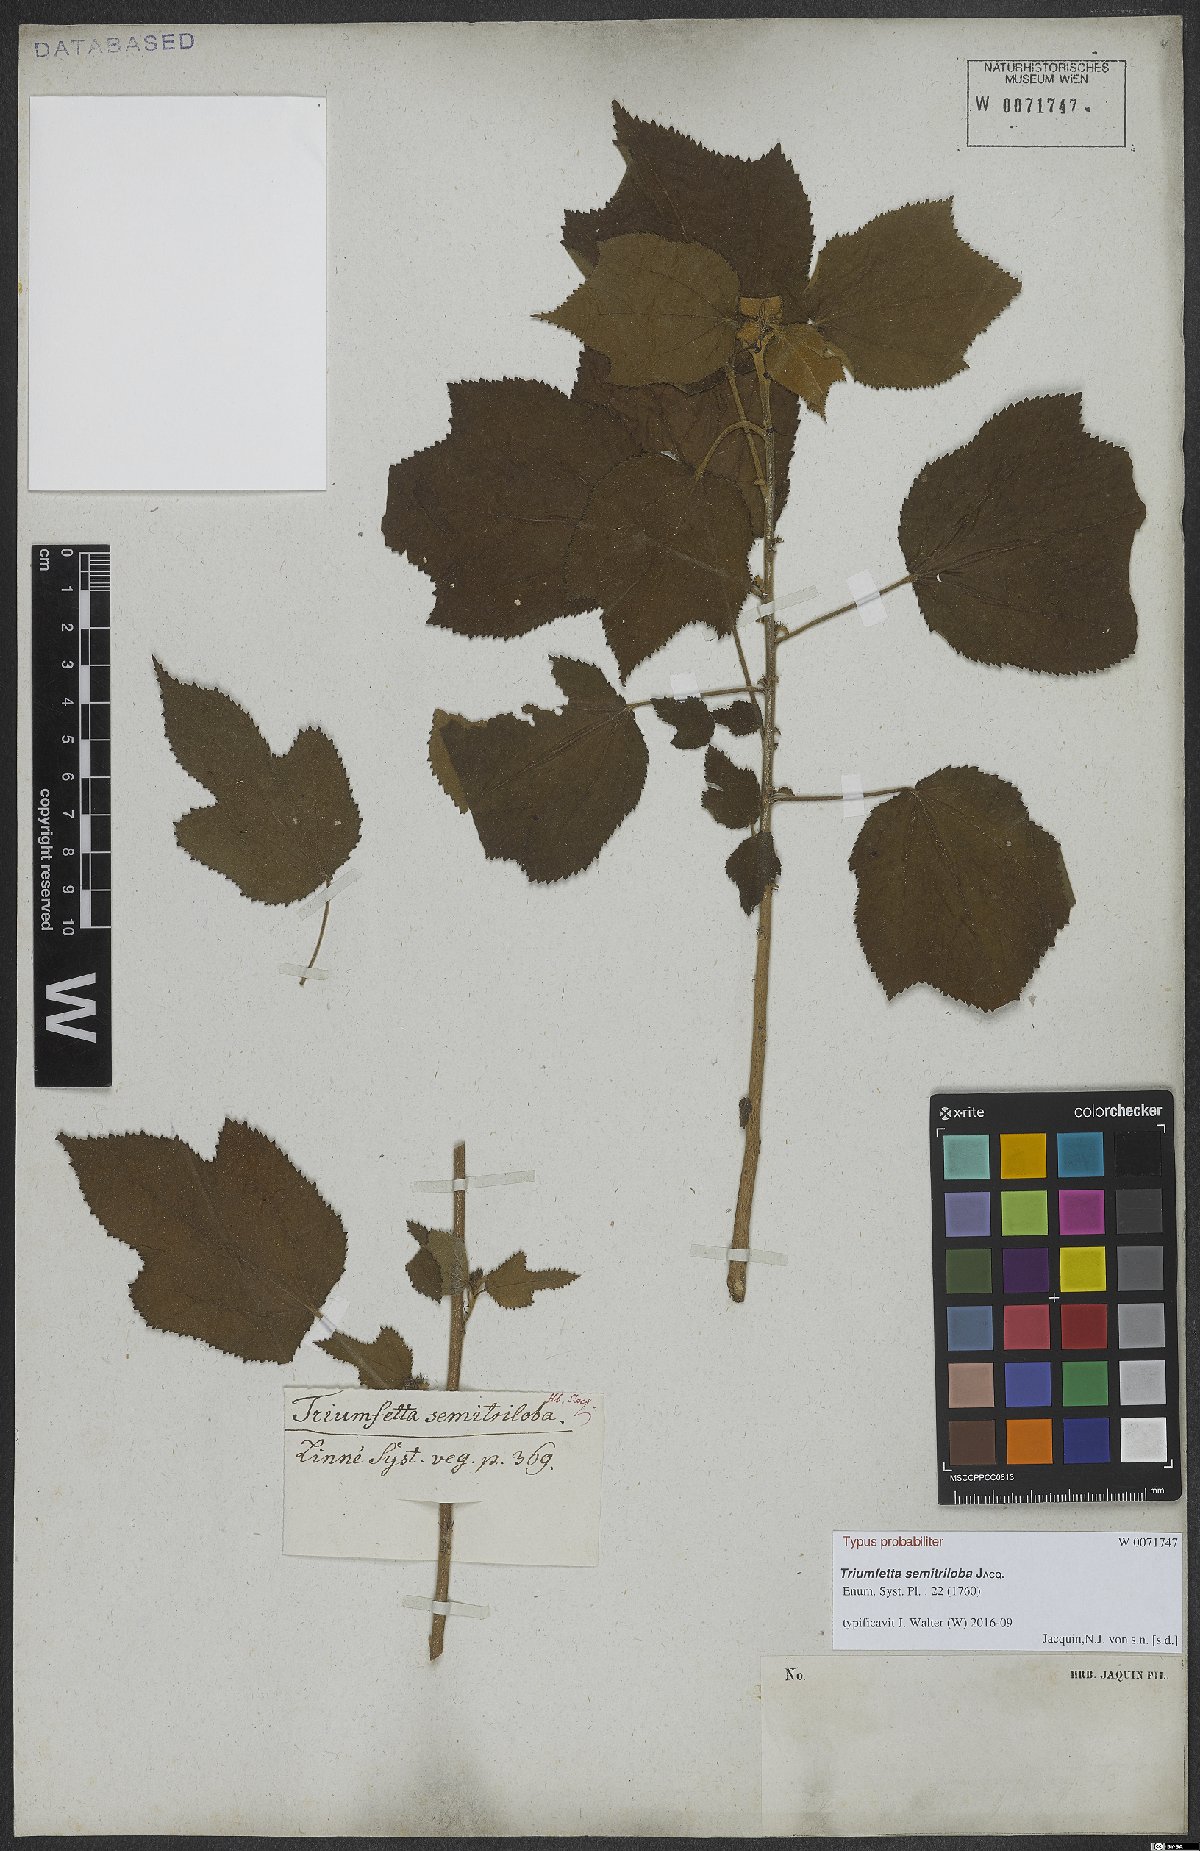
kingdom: Plantae
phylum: Tracheophyta
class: Magnoliopsida
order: Malvales
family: Malvaceae
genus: Triumfetta
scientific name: Triumfetta semitriloba
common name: Sacramento burbark
